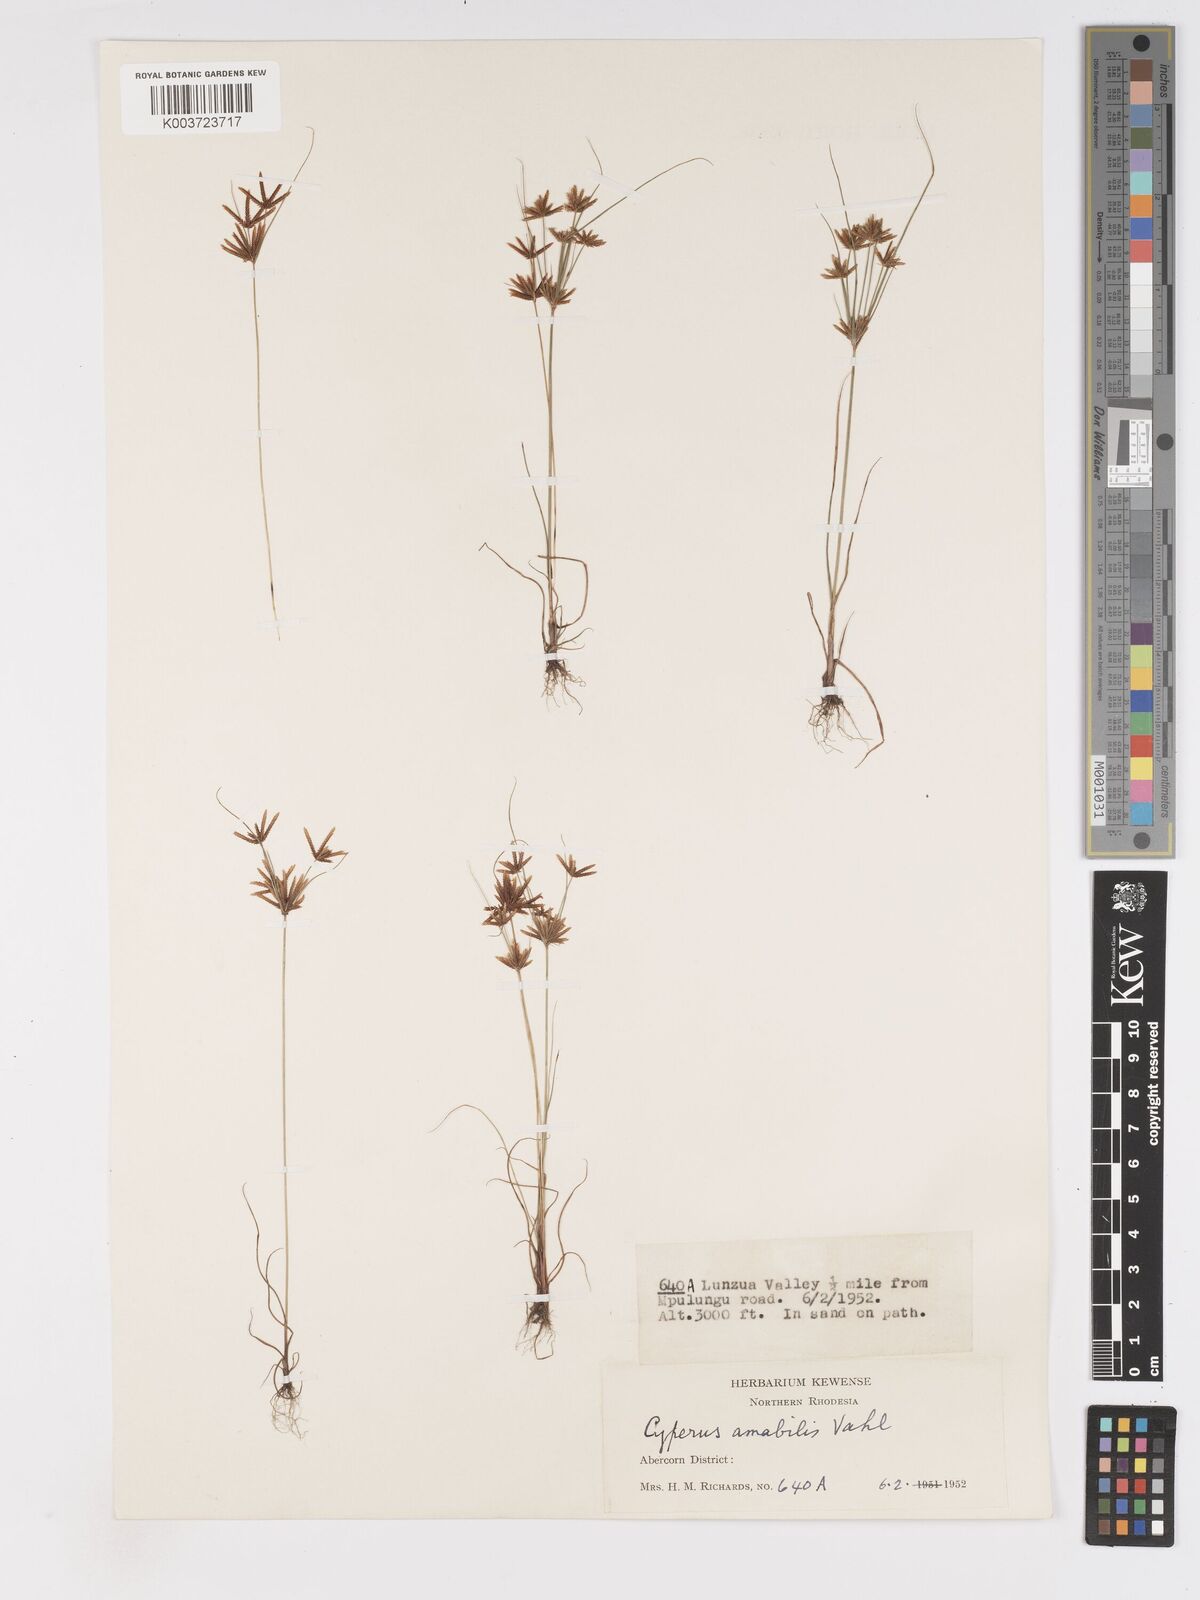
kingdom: Plantae
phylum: Tracheophyta
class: Liliopsida
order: Poales
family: Cyperaceae
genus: Cyperus
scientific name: Cyperus amabilis
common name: Foothill flat sedge
